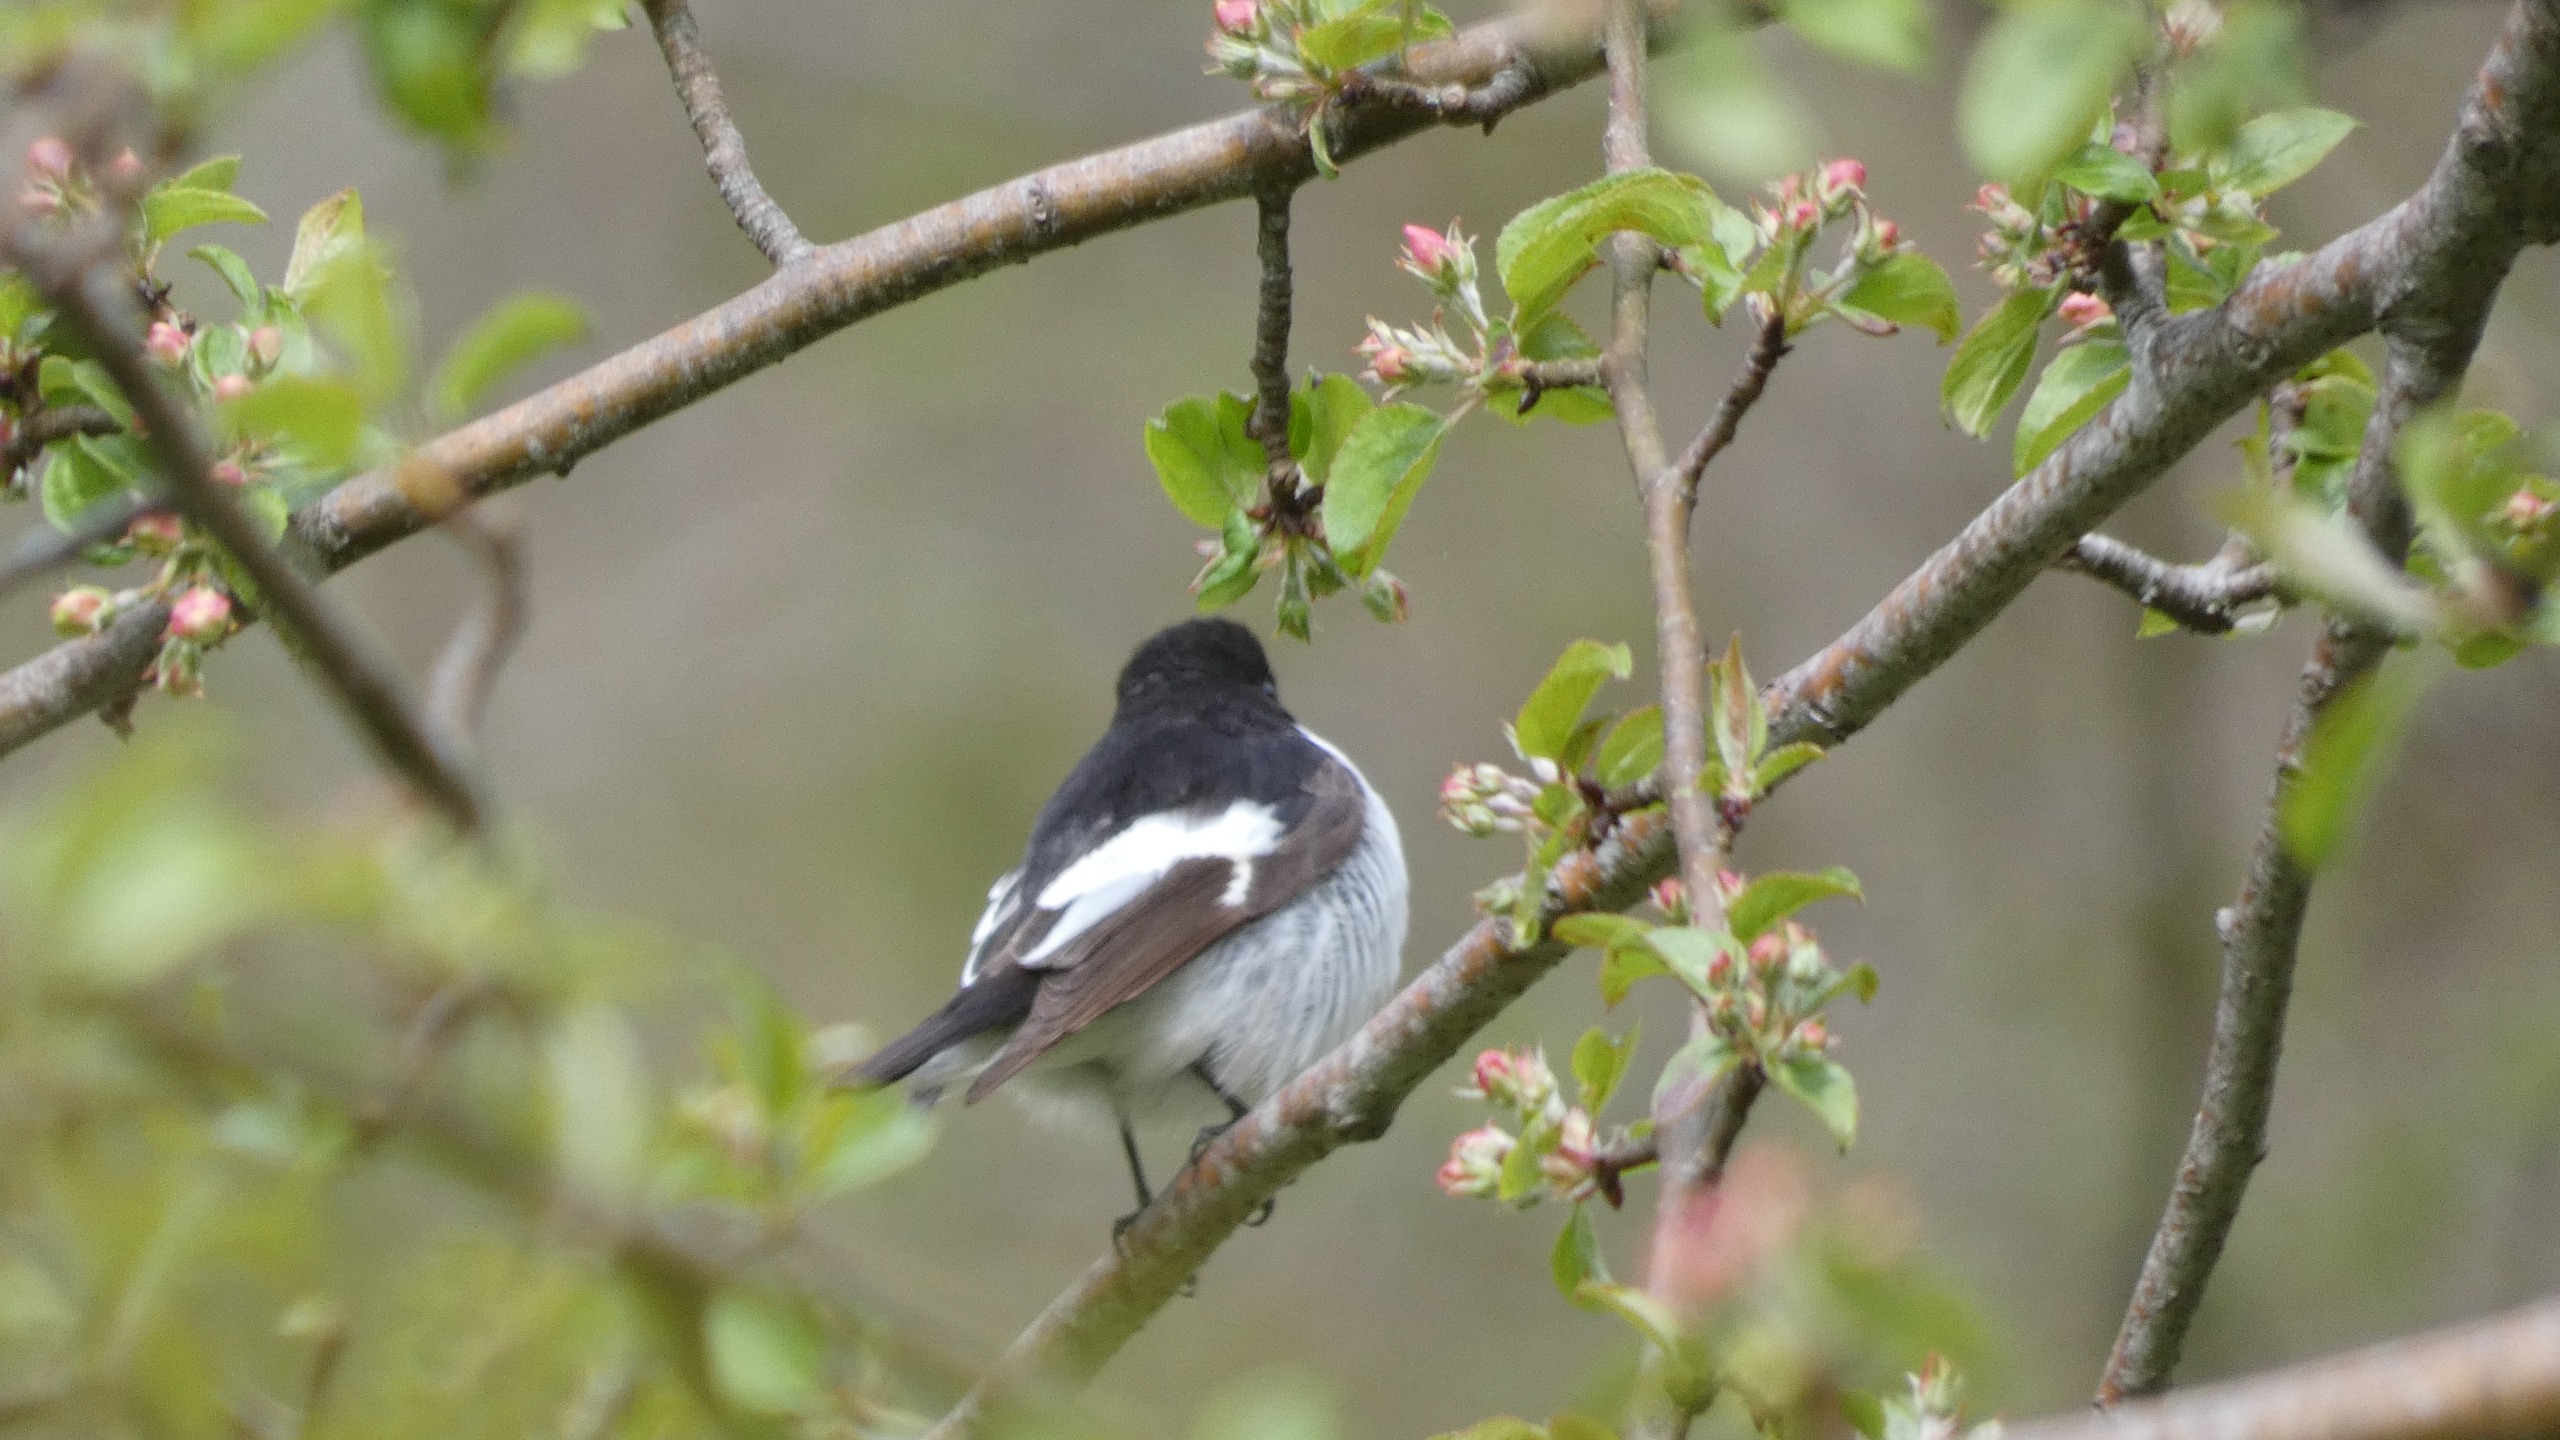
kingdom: Animalia
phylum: Chordata
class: Aves
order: Passeriformes
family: Muscicapidae
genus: Ficedula
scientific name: Ficedula hypoleuca
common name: Broget fluesnapper
